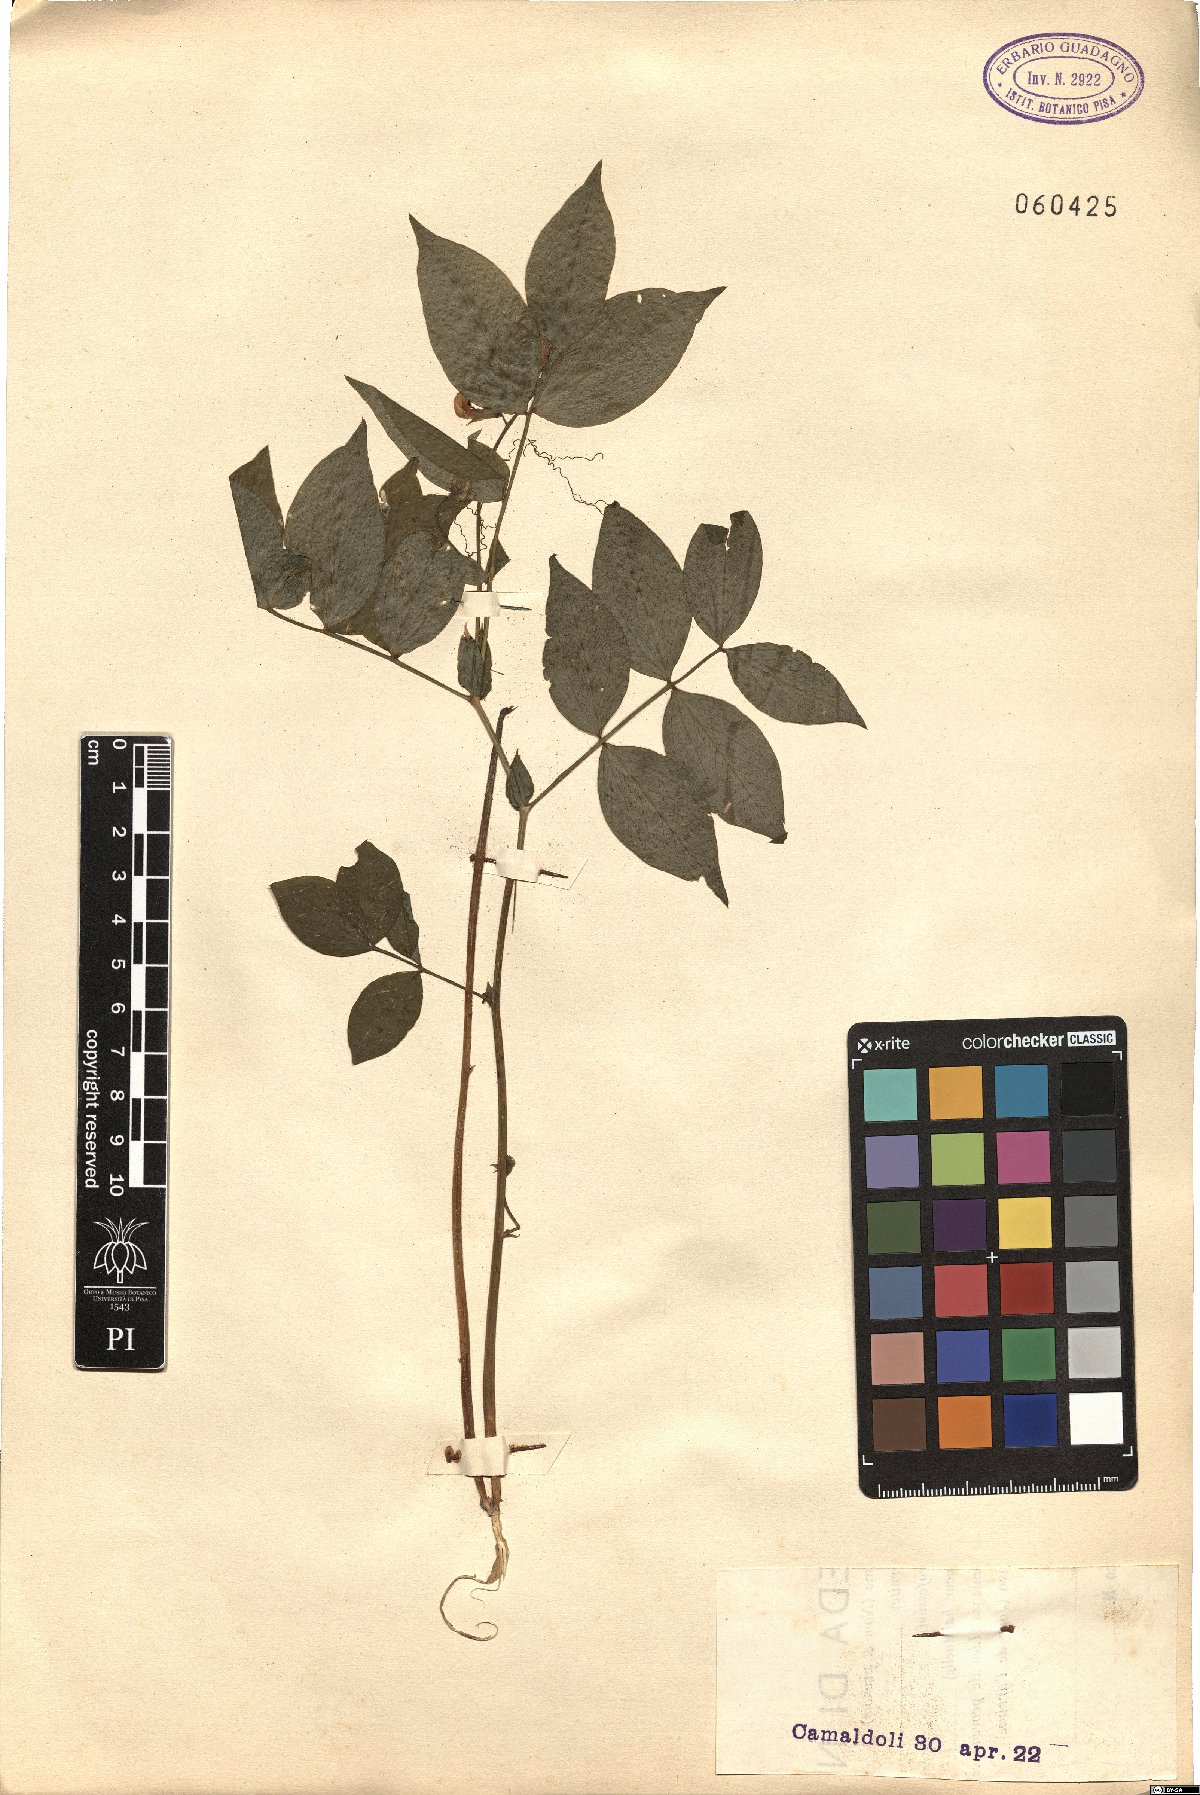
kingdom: Plantae
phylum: Tracheophyta
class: Magnoliopsida
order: Fabales
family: Fabaceae
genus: Lathyrus
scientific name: Lathyrus venetus
